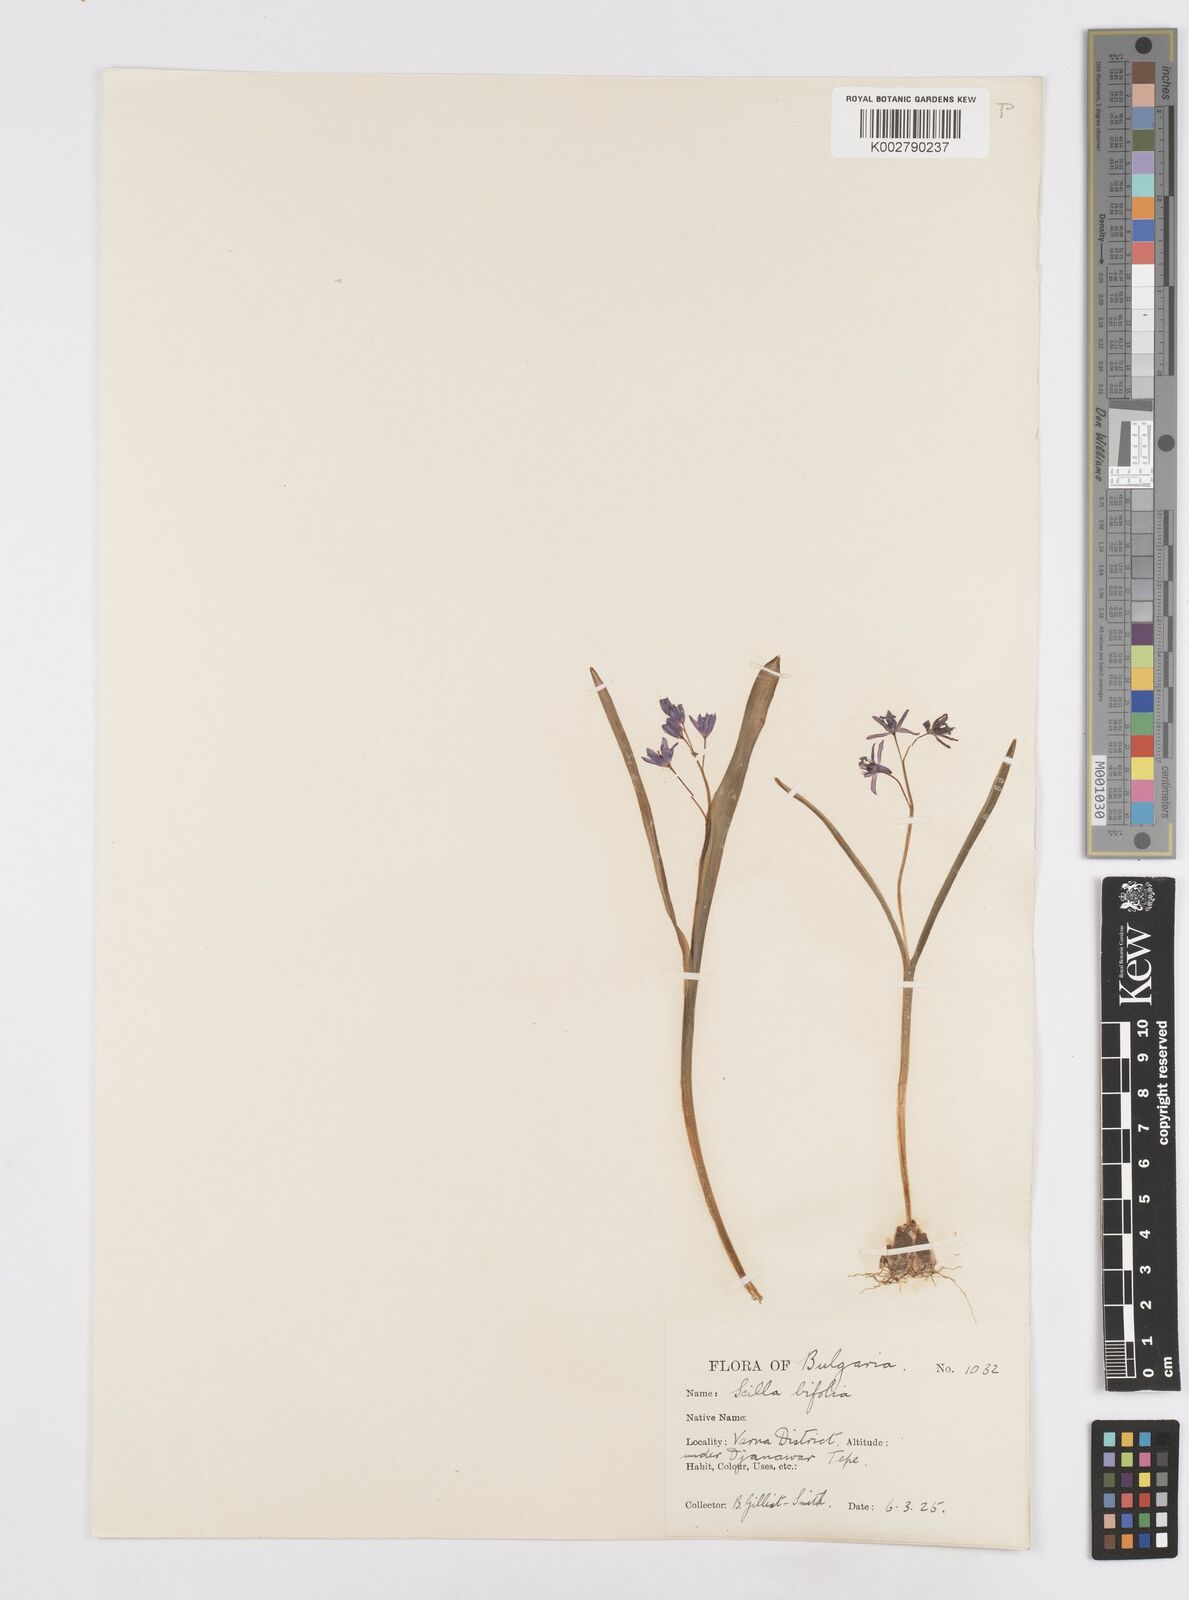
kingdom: Plantae
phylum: Tracheophyta
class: Liliopsida
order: Asparagales
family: Asparagaceae
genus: Scilla
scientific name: Scilla bifolia
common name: Alpine squill
